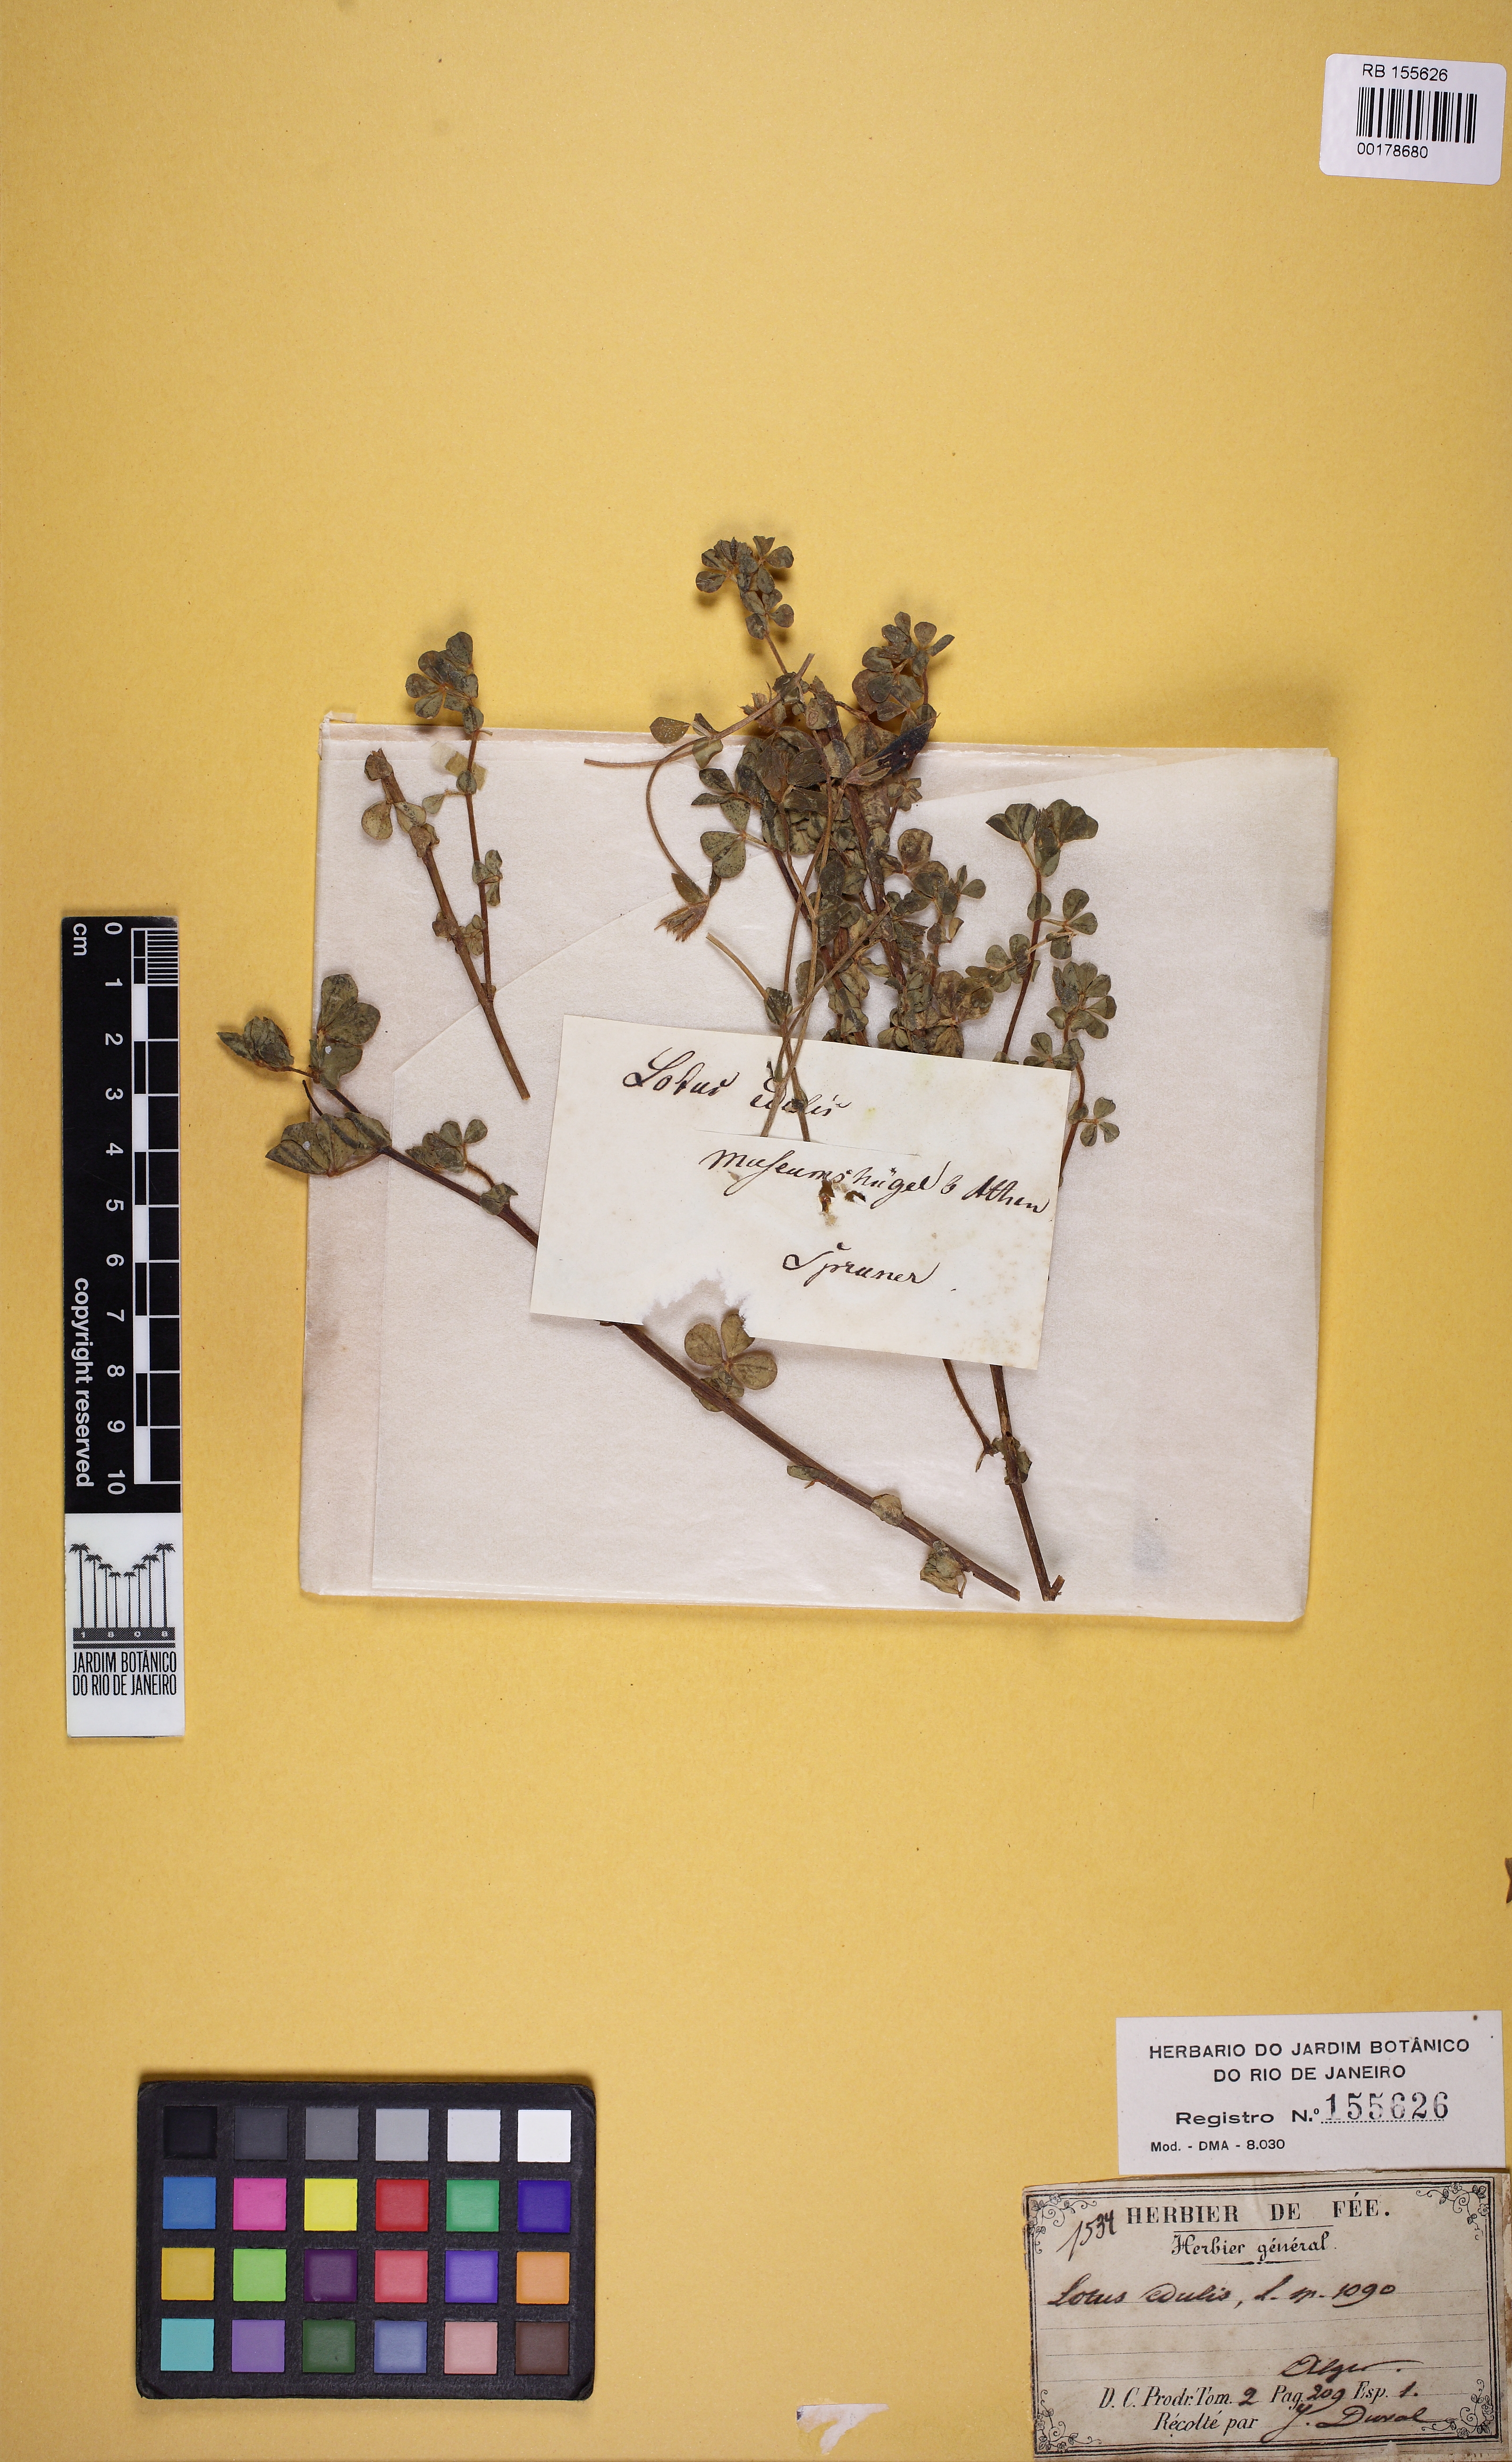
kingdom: Plantae
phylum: Tracheophyta
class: Magnoliopsida
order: Fabales
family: Fabaceae
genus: Lotus
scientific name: Lotus edulis
